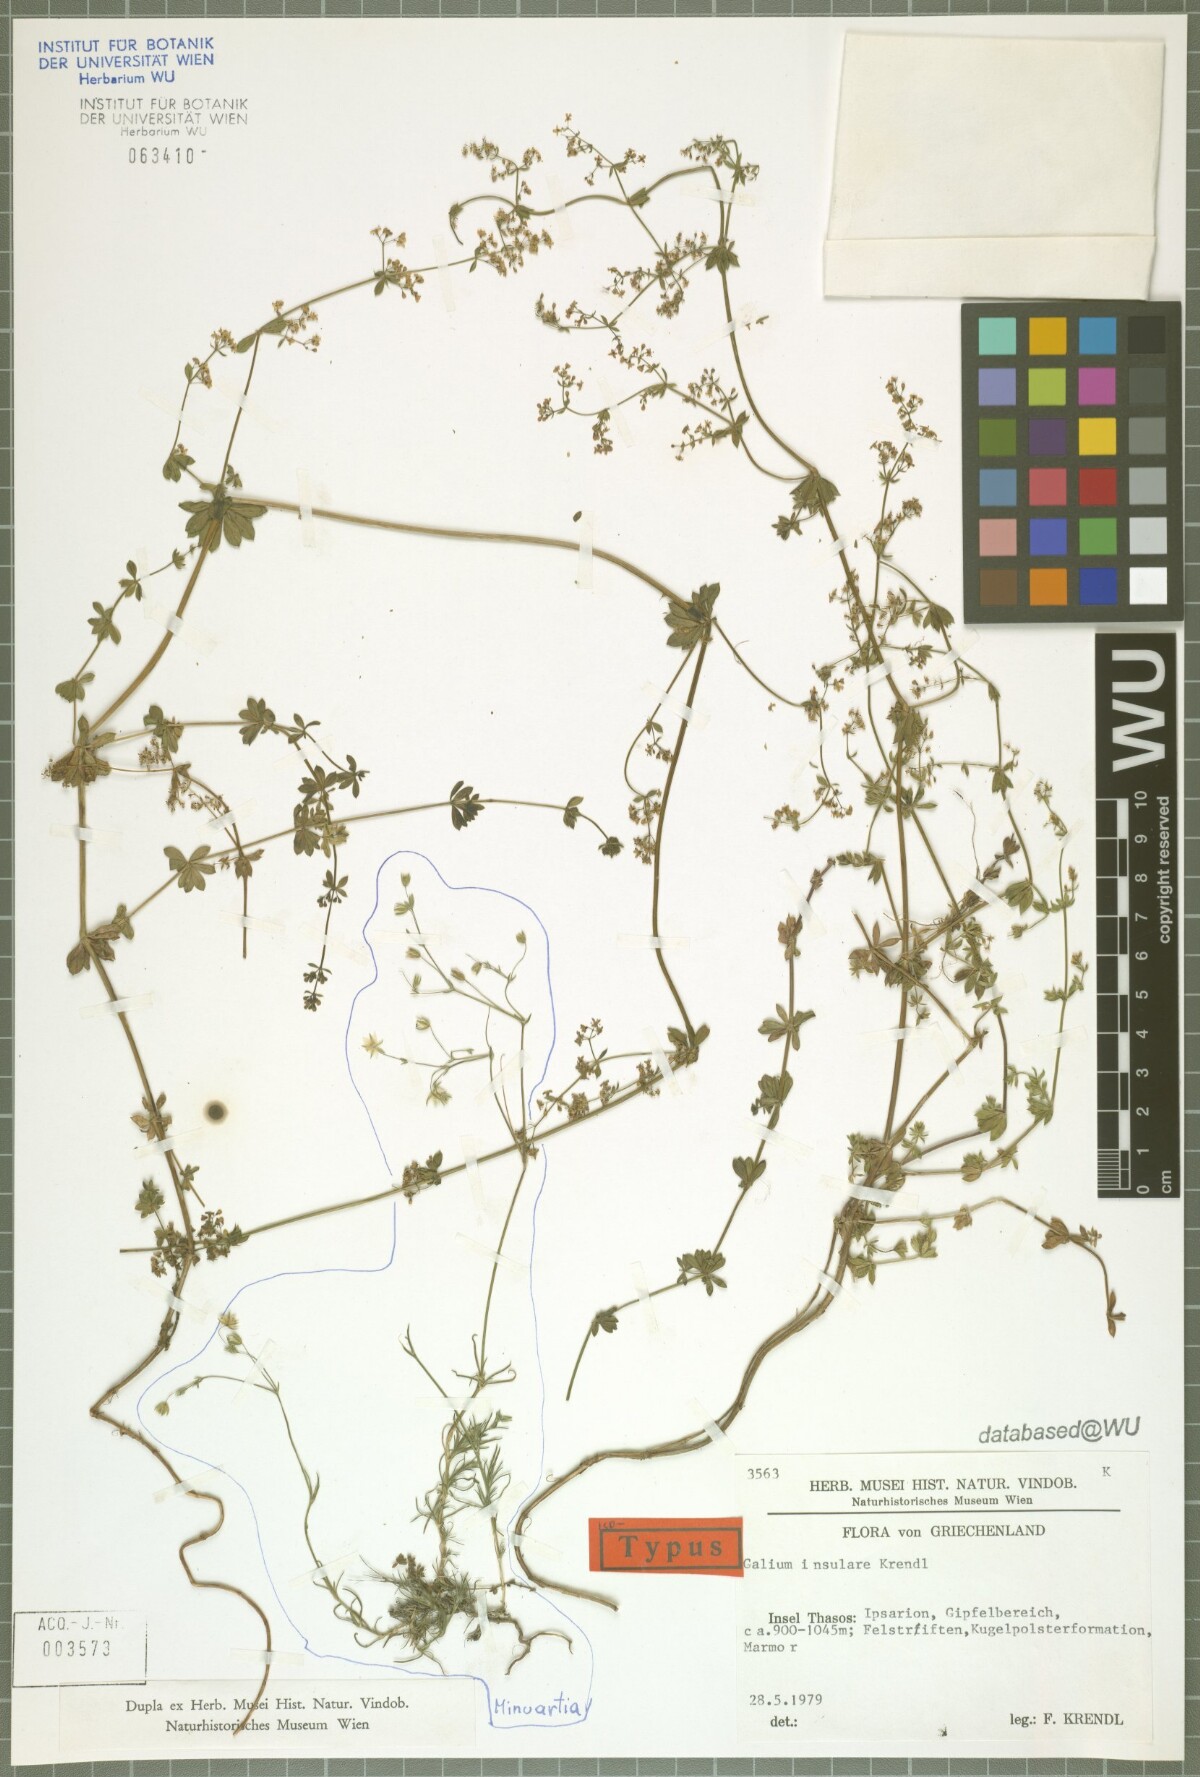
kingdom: Plantae
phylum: Tracheophyta
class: Magnoliopsida
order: Gentianales
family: Rubiaceae
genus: Galium
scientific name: Galium insulare
